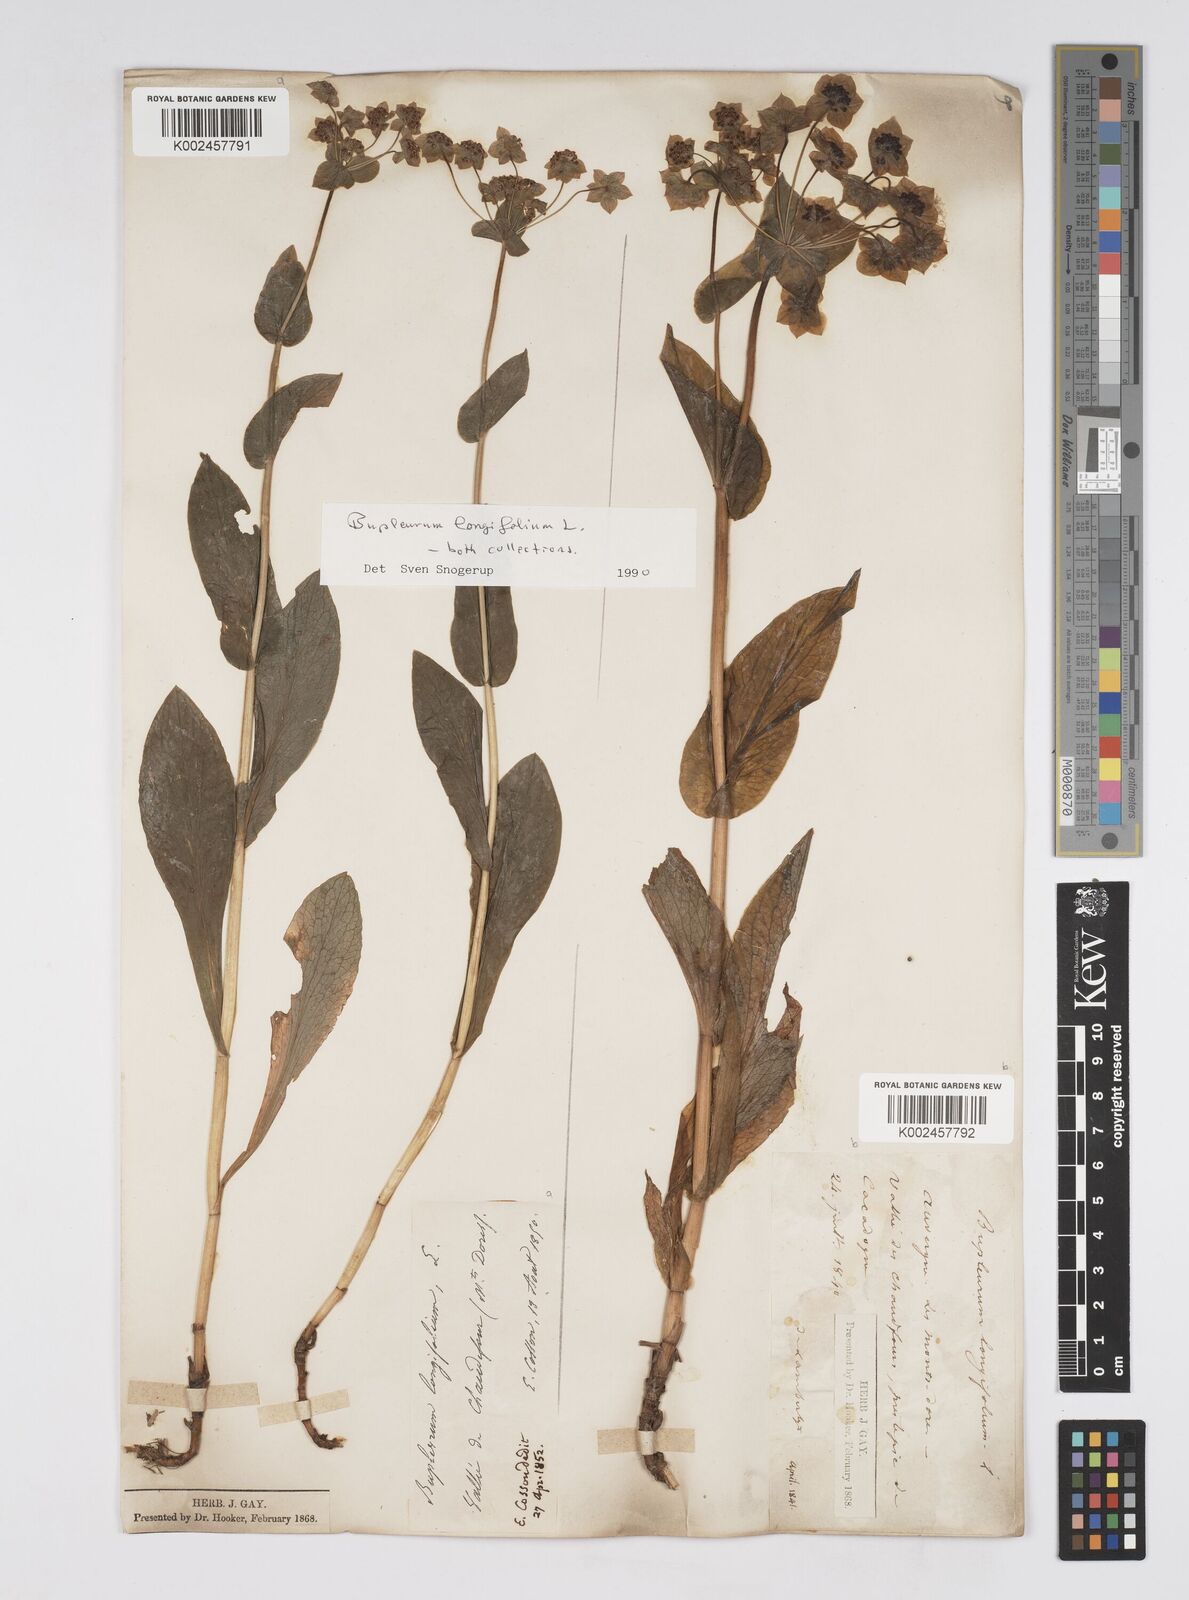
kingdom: Plantae
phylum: Tracheophyta
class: Magnoliopsida
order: Apiales
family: Apiaceae
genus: Bupleurum
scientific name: Bupleurum longifolium
